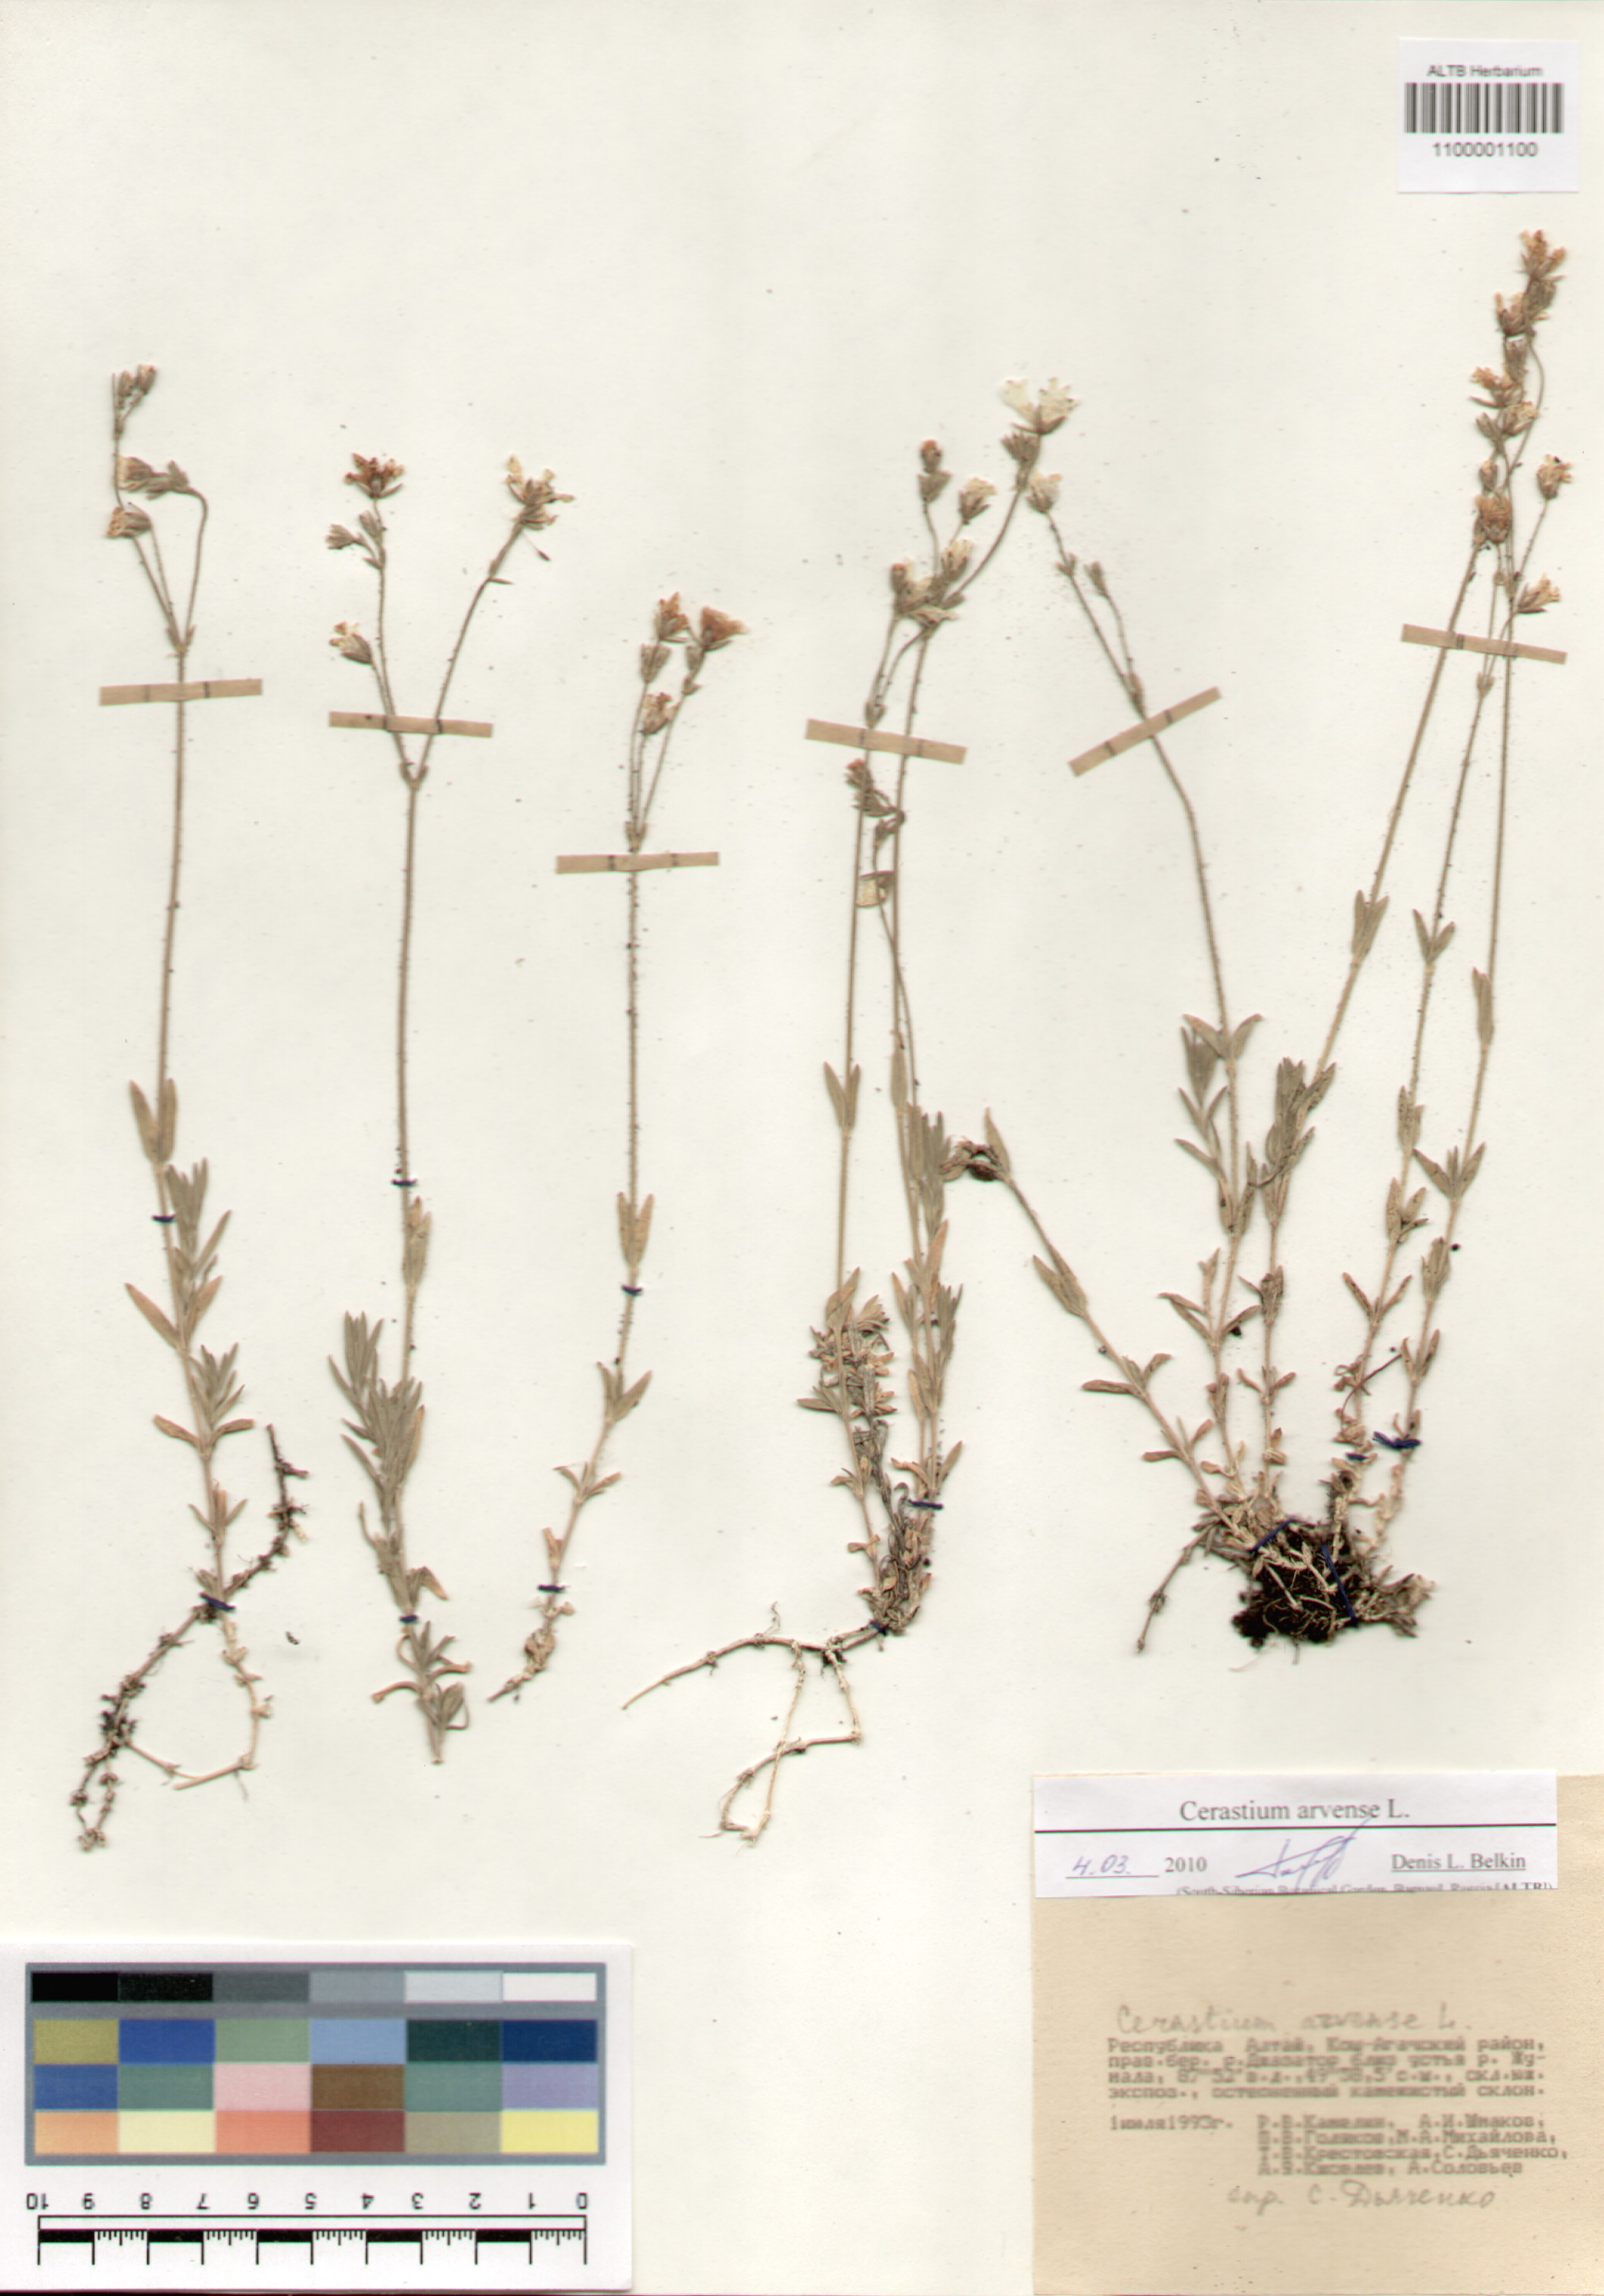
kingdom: Plantae
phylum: Tracheophyta
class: Magnoliopsida
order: Caryophyllales
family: Caryophyllaceae
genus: Cerastium
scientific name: Cerastium arvense
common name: Field mouse-ear
